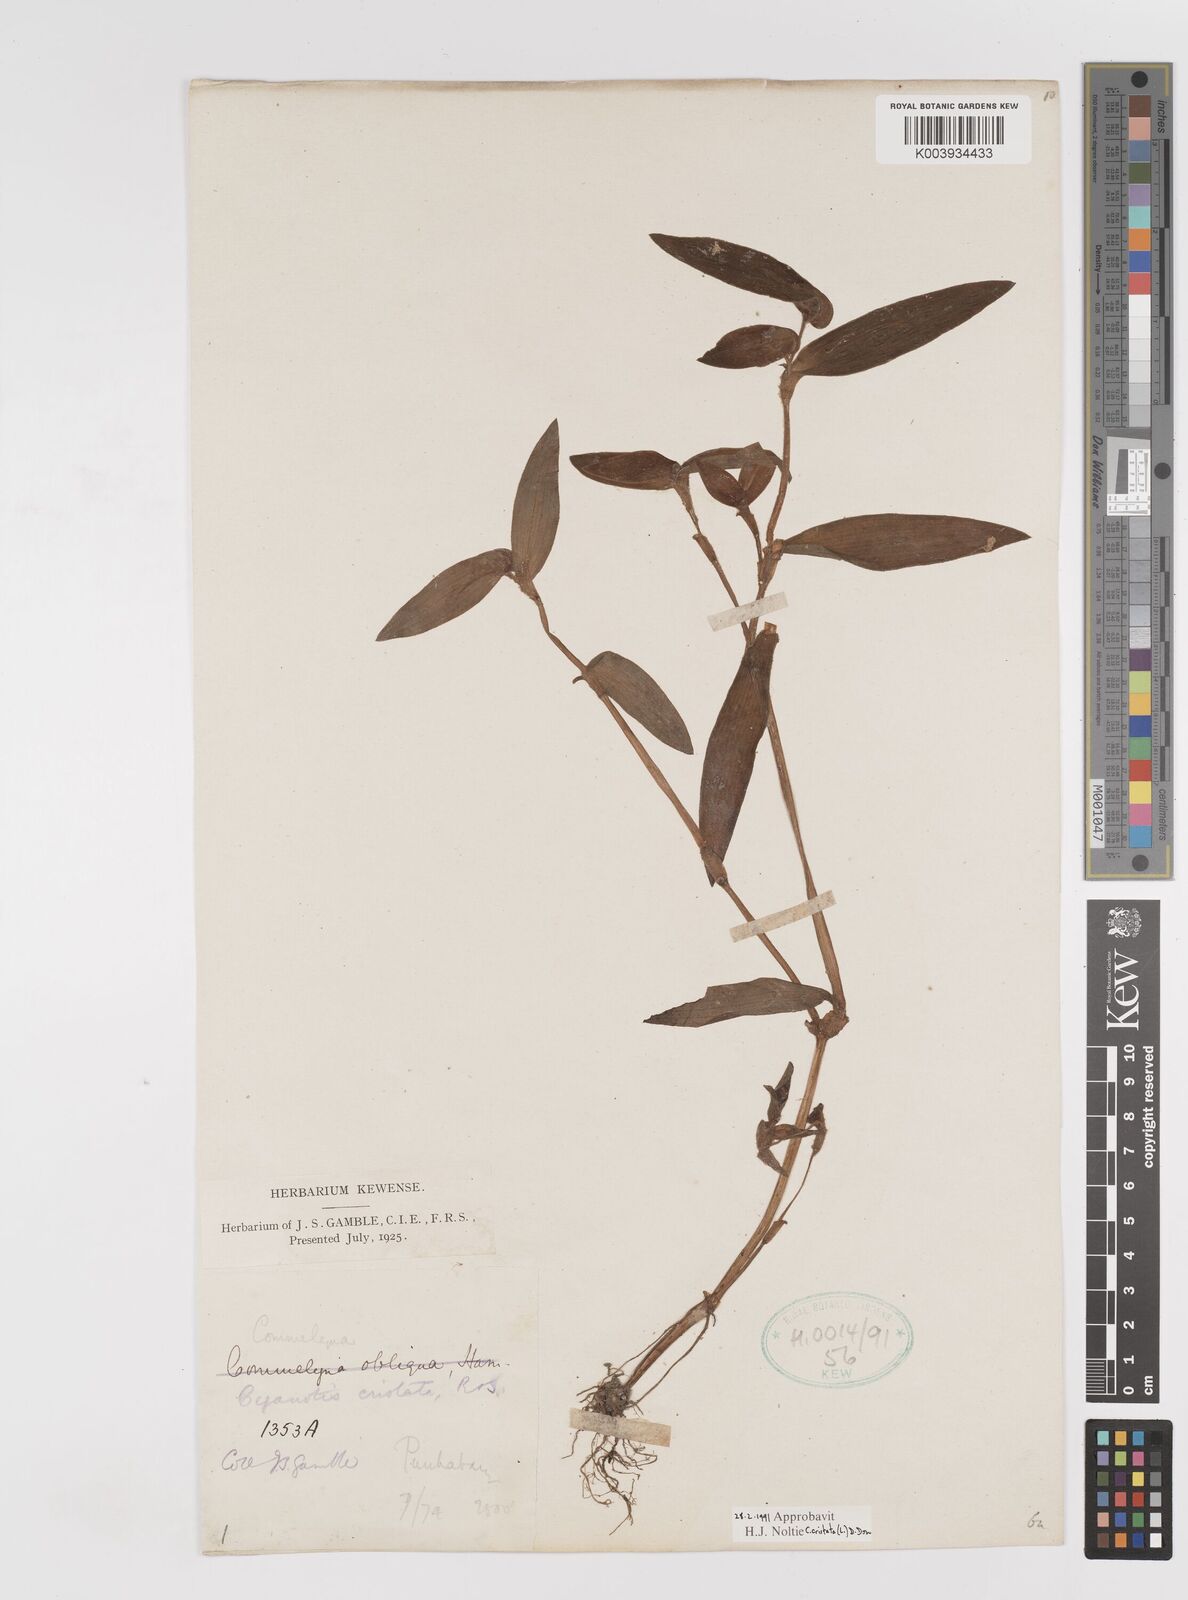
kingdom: Plantae
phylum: Tracheophyta
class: Liliopsida
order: Commelinales
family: Commelinaceae
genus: Cyanotis
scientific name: Cyanotis cristata
